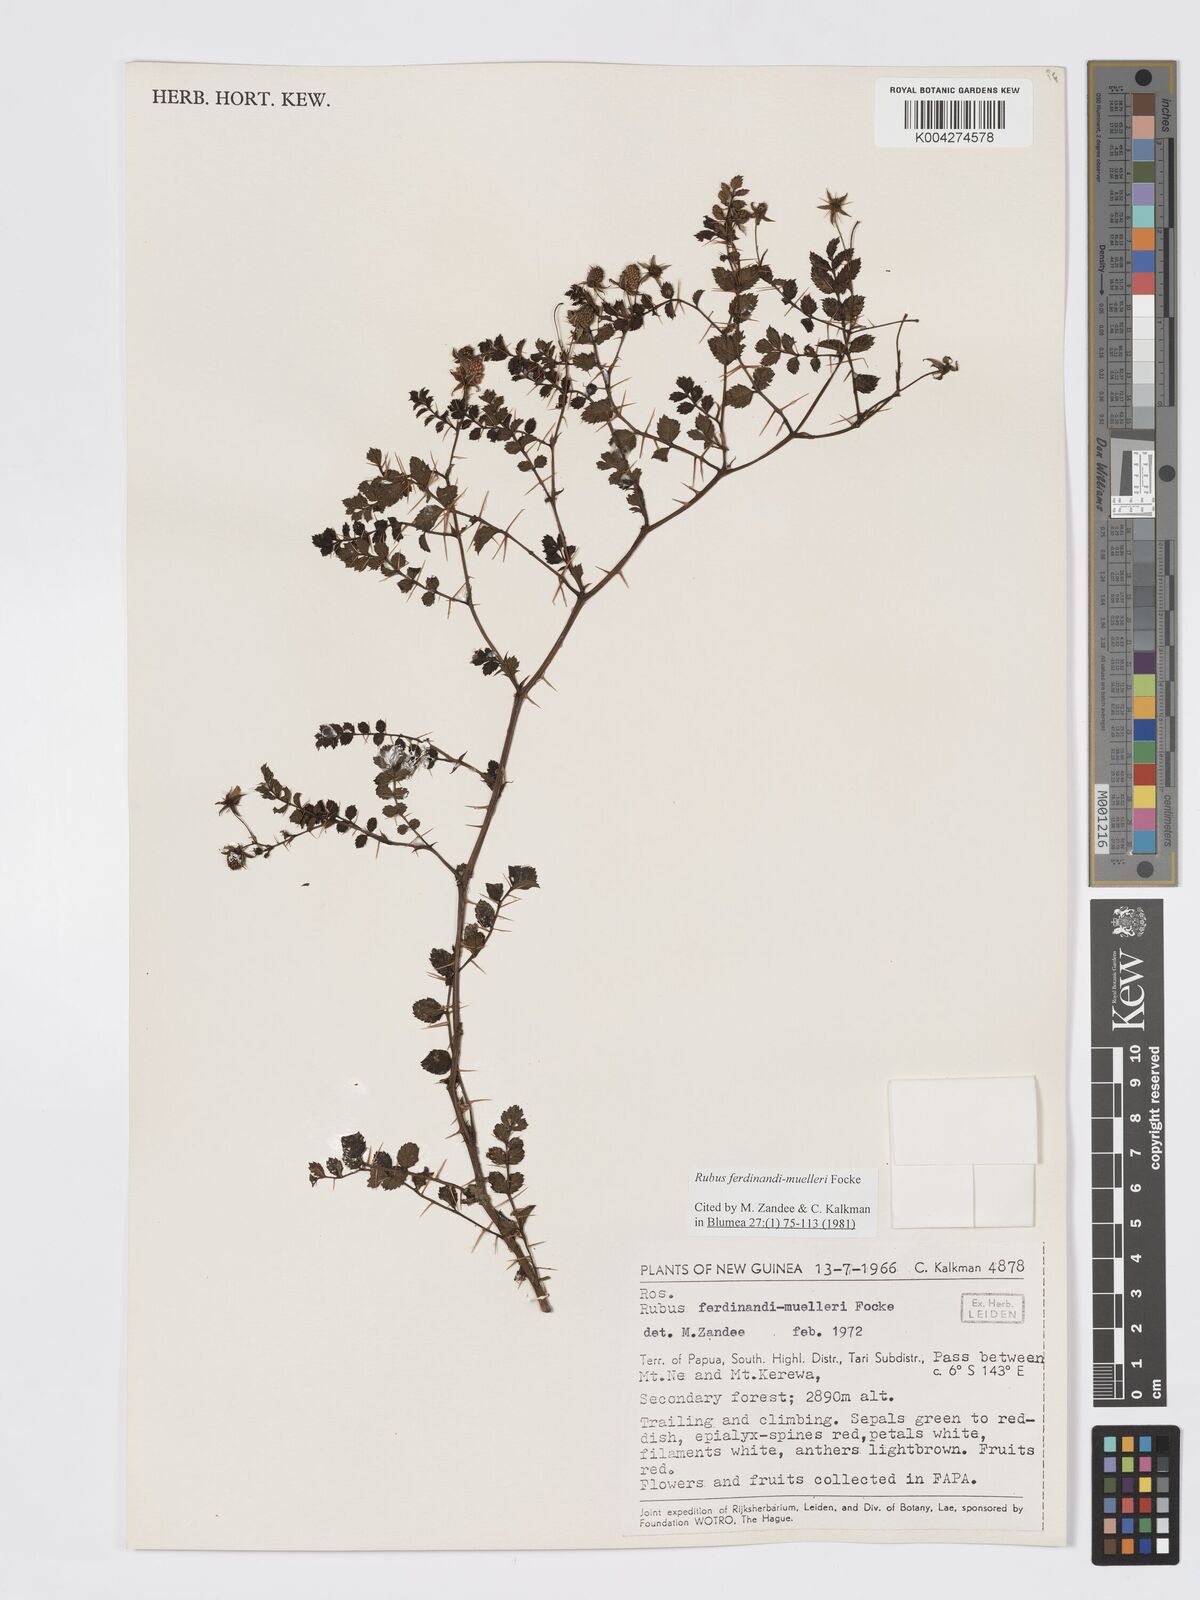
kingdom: Plantae
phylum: Tracheophyta
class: Magnoliopsida
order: Rosales
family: Rosaceae
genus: Rubus
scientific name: Rubus ferdinandimuelleri
